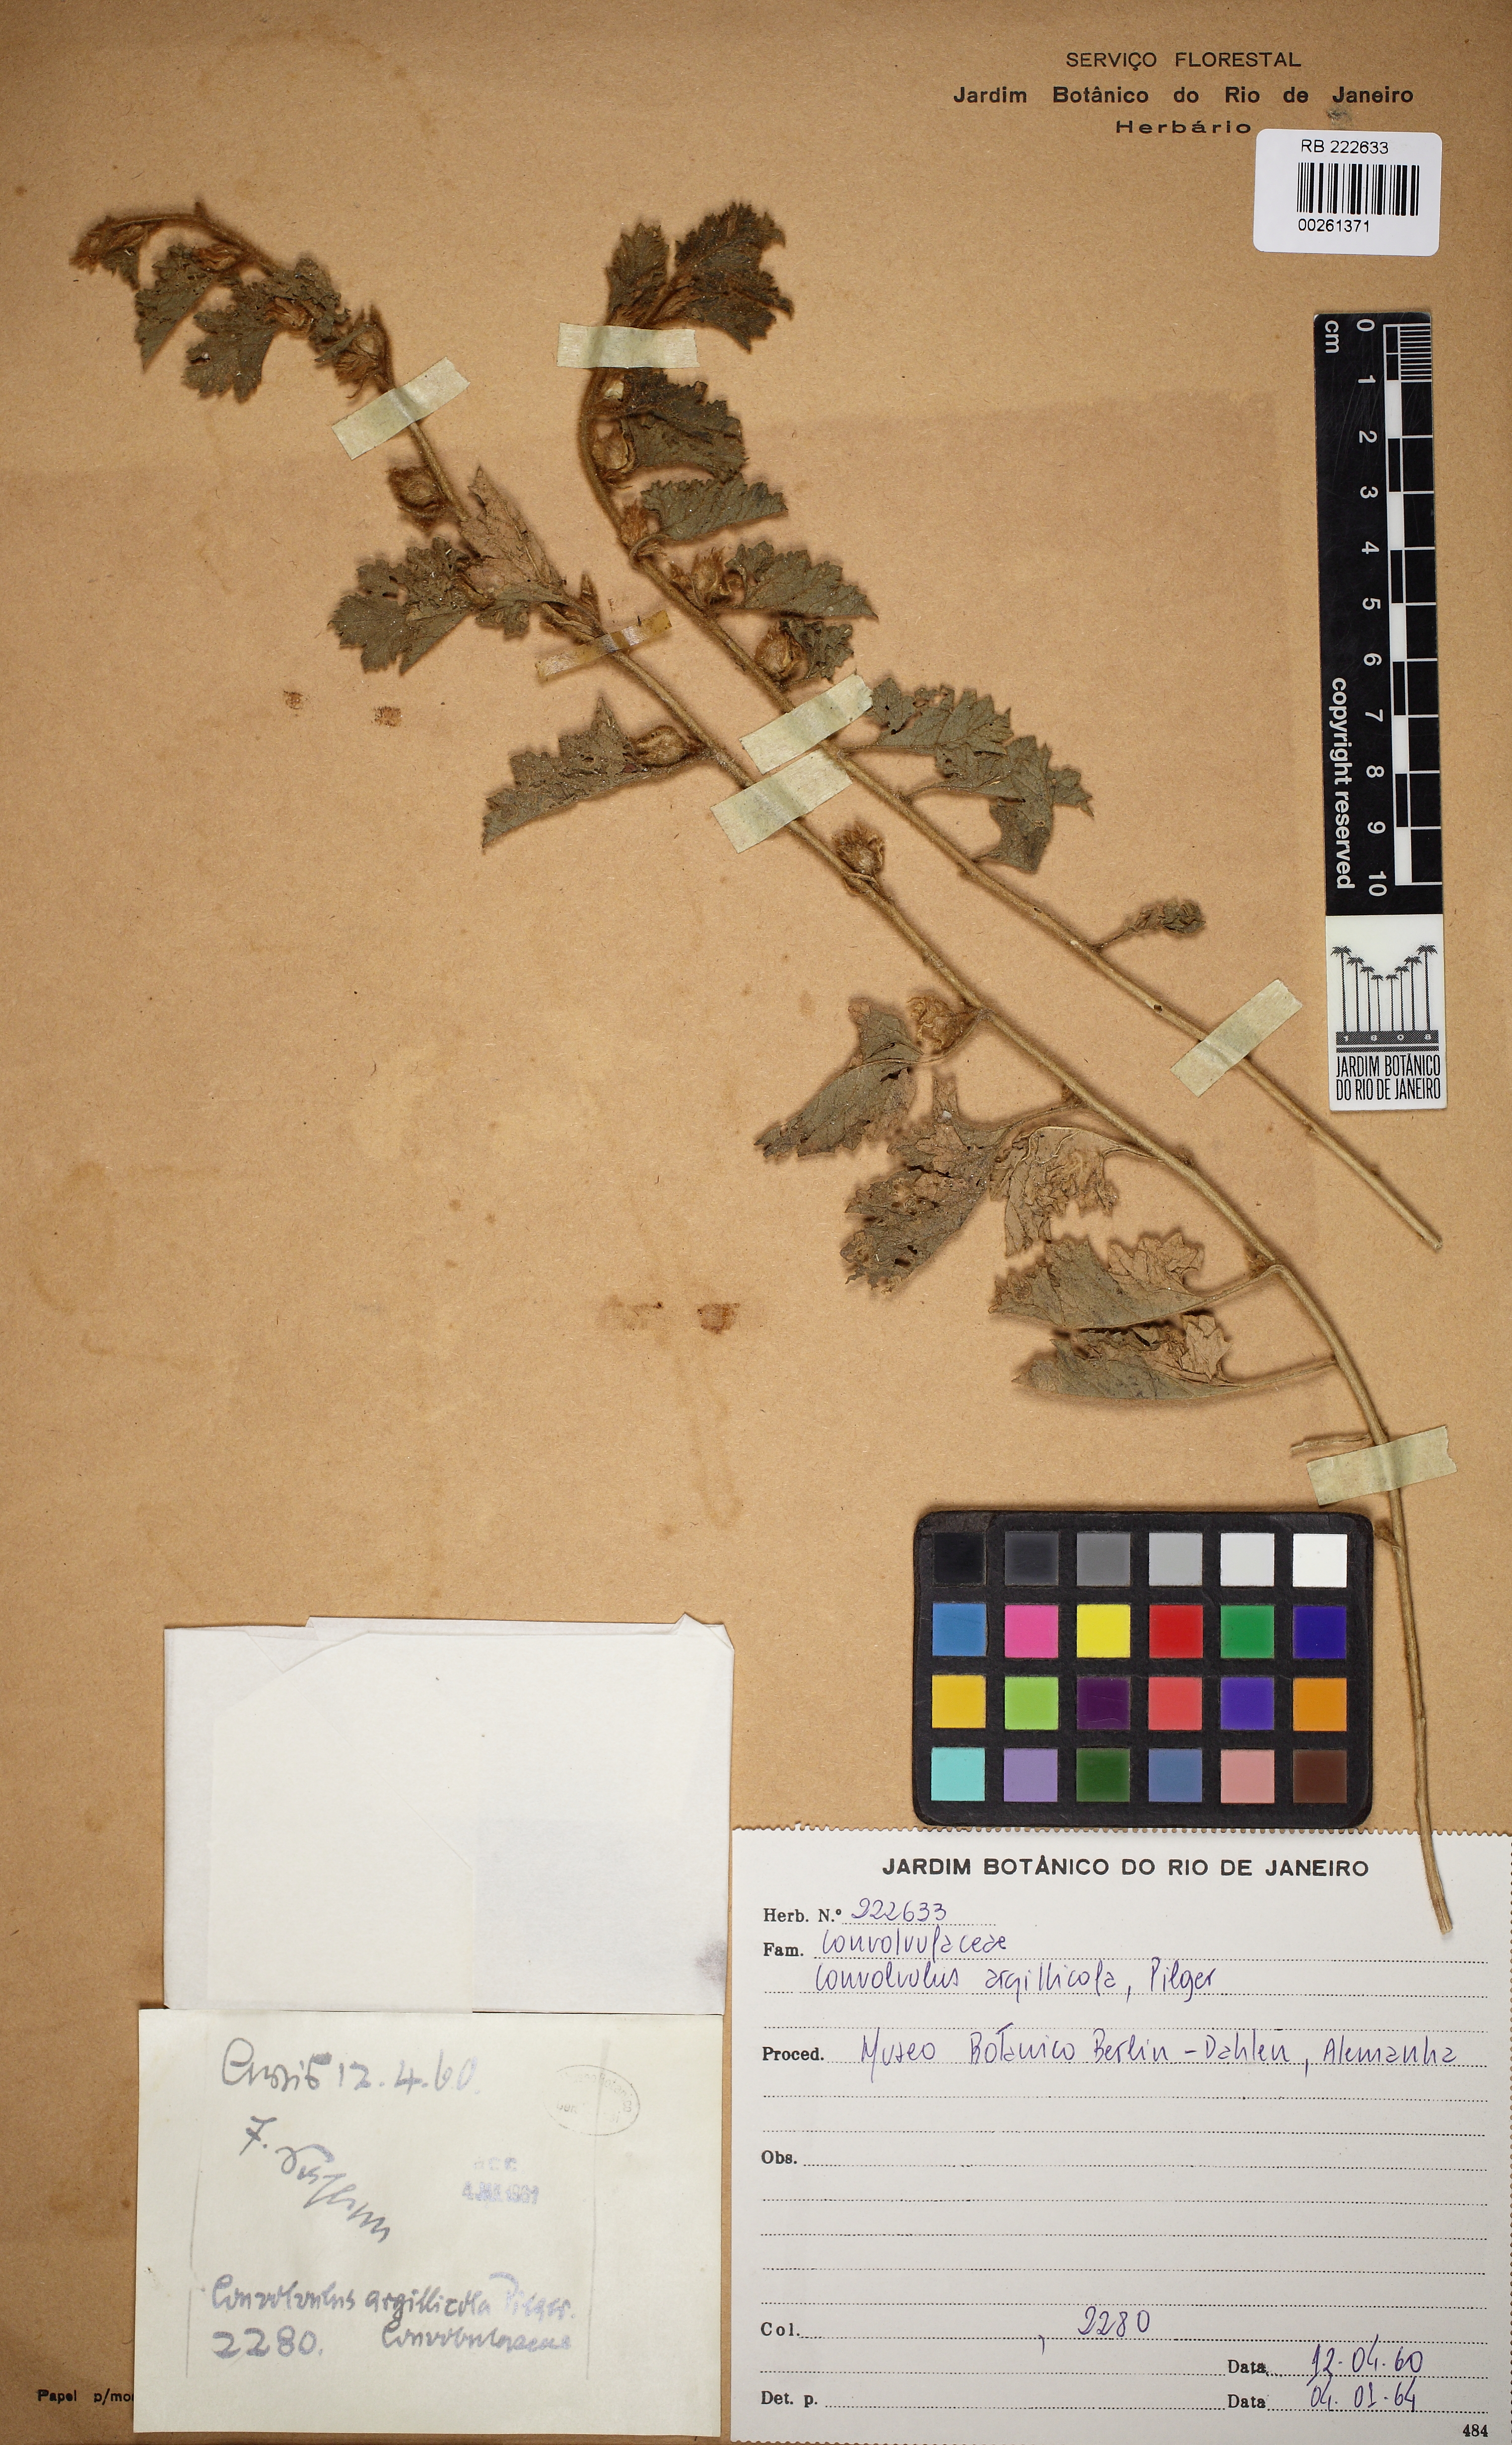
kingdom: Plantae
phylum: Tracheophyta
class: Magnoliopsida
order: Solanales
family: Convolvulaceae
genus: Convolvulus
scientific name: Convolvulus
